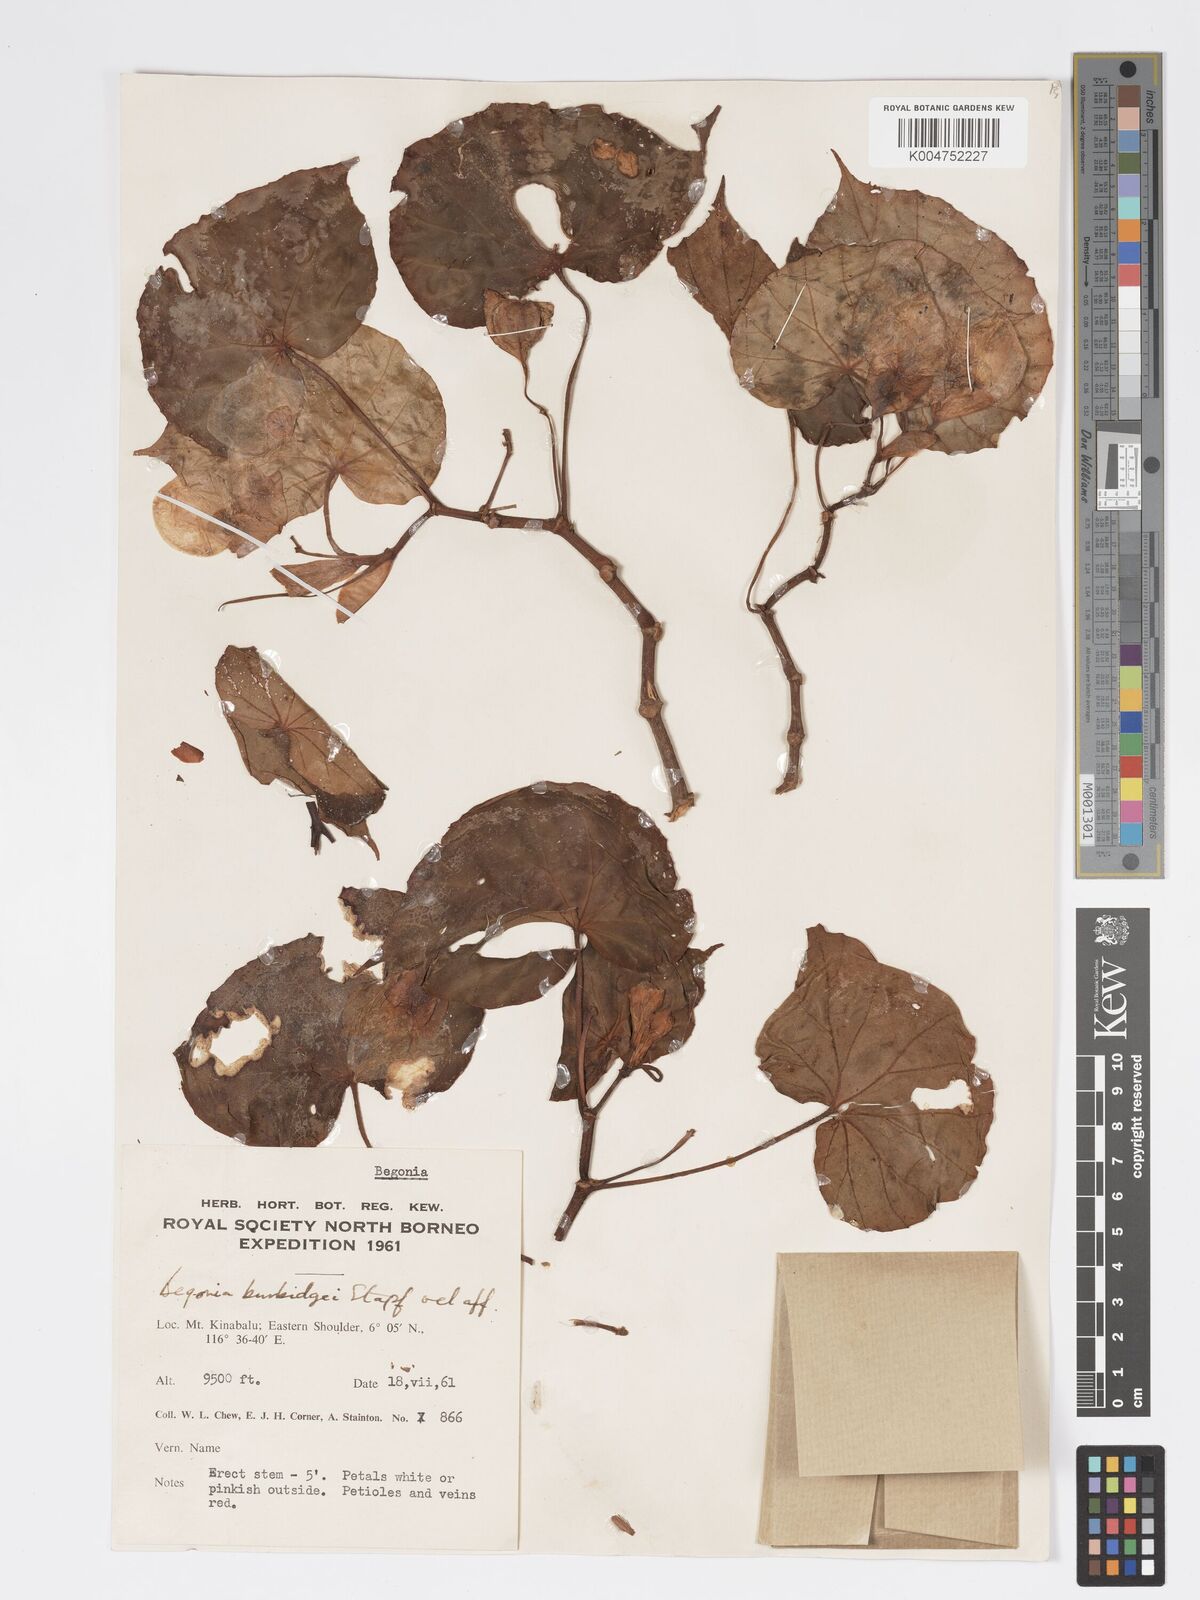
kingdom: Plantae
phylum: Tracheophyta
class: Magnoliopsida
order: Cucurbitales
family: Begoniaceae
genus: Begonia
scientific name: Begonia burbidgei
